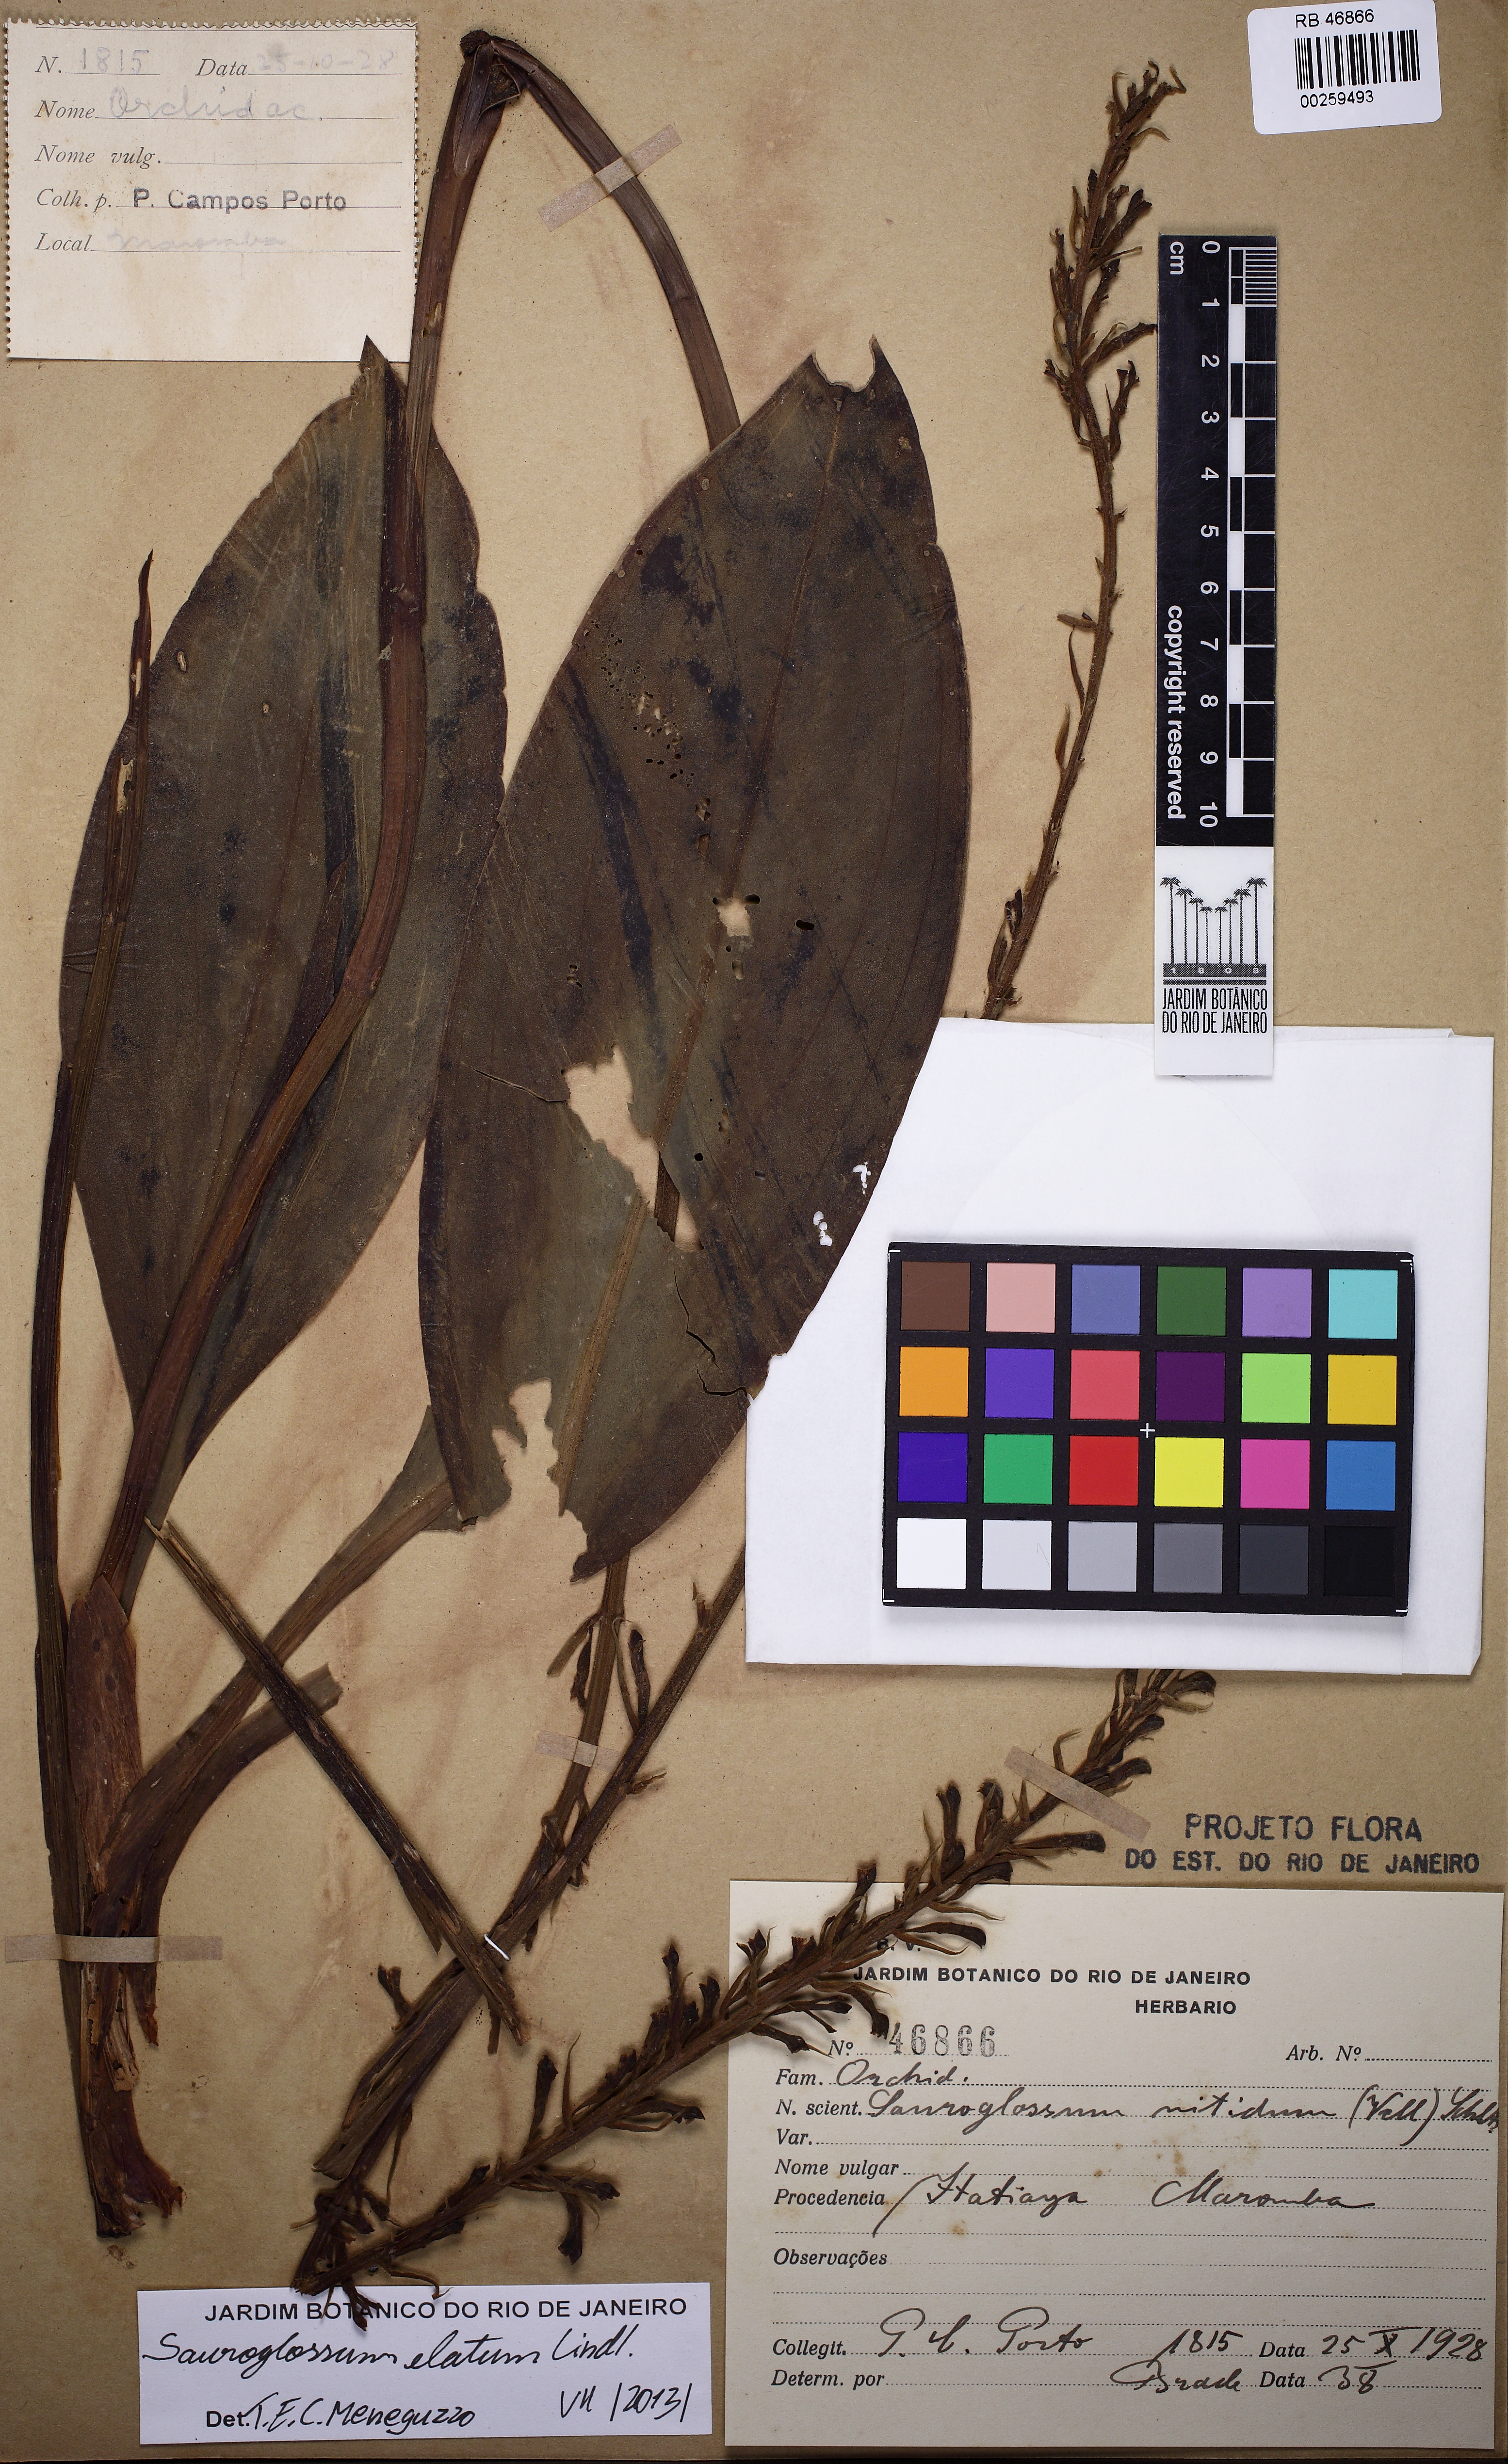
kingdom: Plantae
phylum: Tracheophyta
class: Liliopsida
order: Asparagales
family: Orchidaceae
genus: Sauroglossum
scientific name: Sauroglossum elatum
